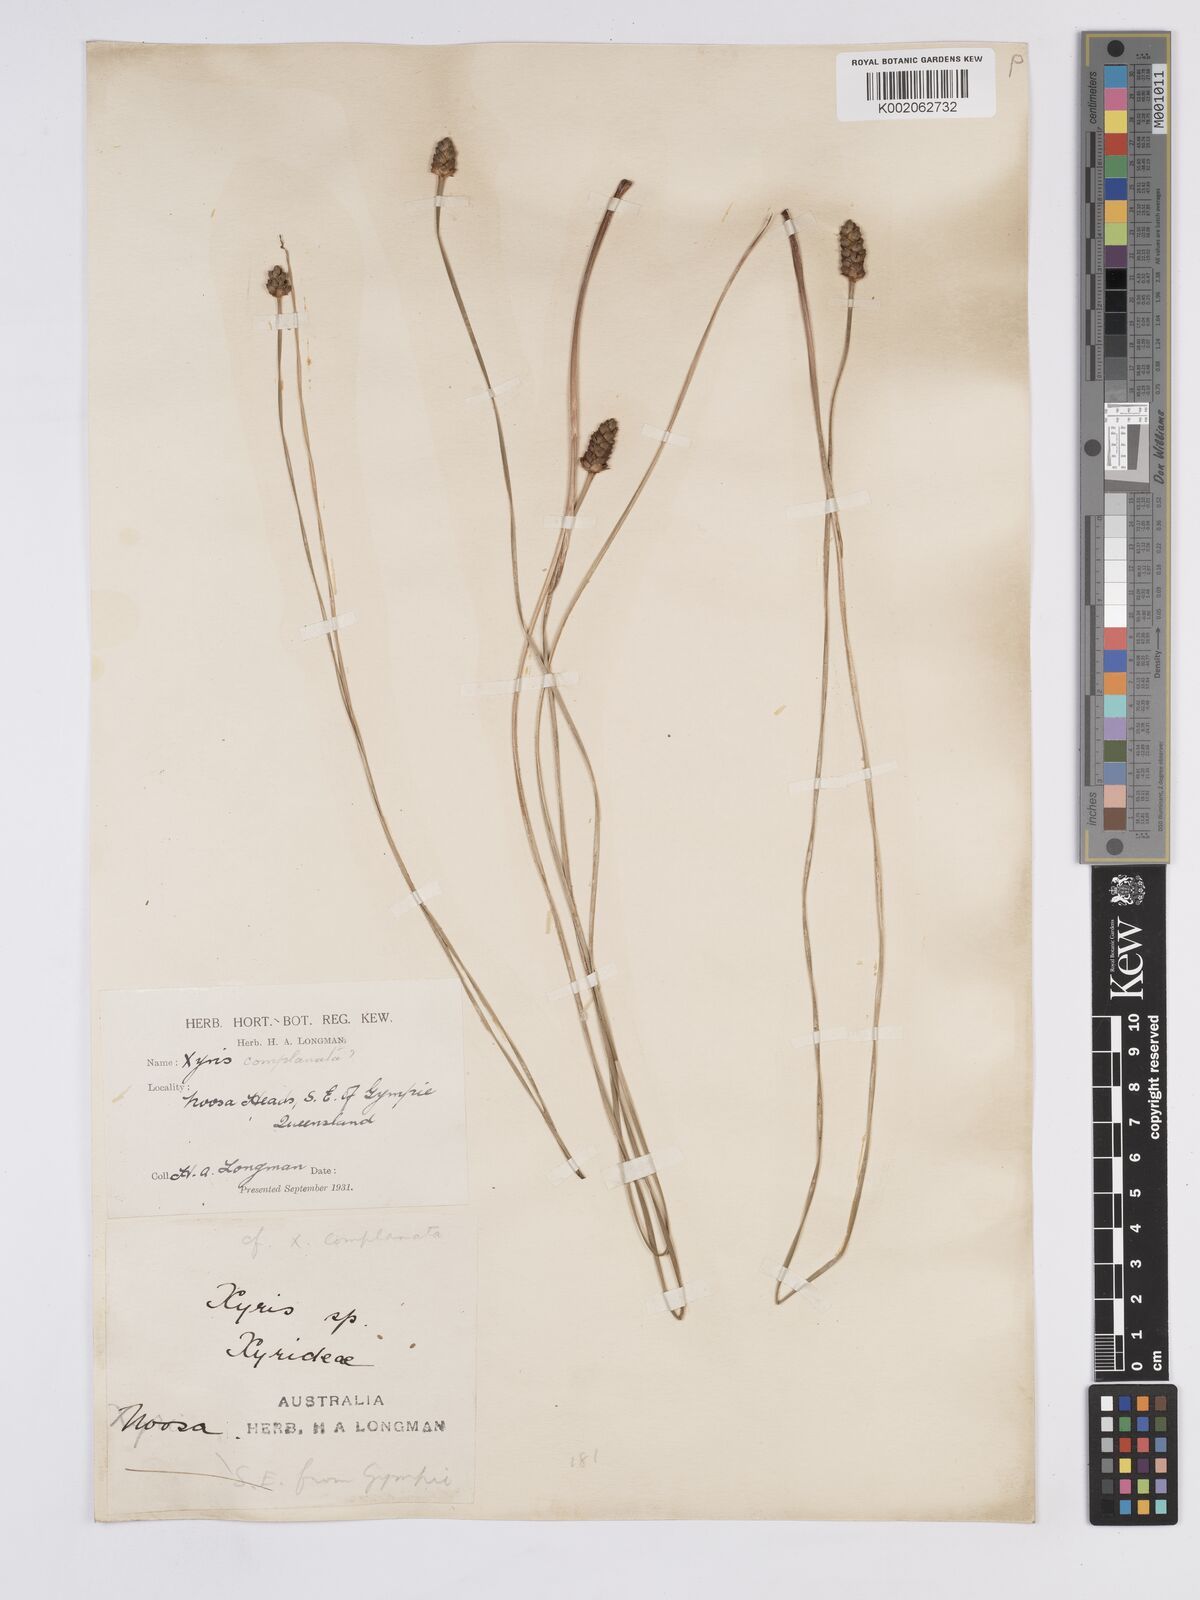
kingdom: Plantae
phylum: Tracheophyta
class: Liliopsida
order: Poales
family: Xyridaceae
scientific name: Xyridaceae
